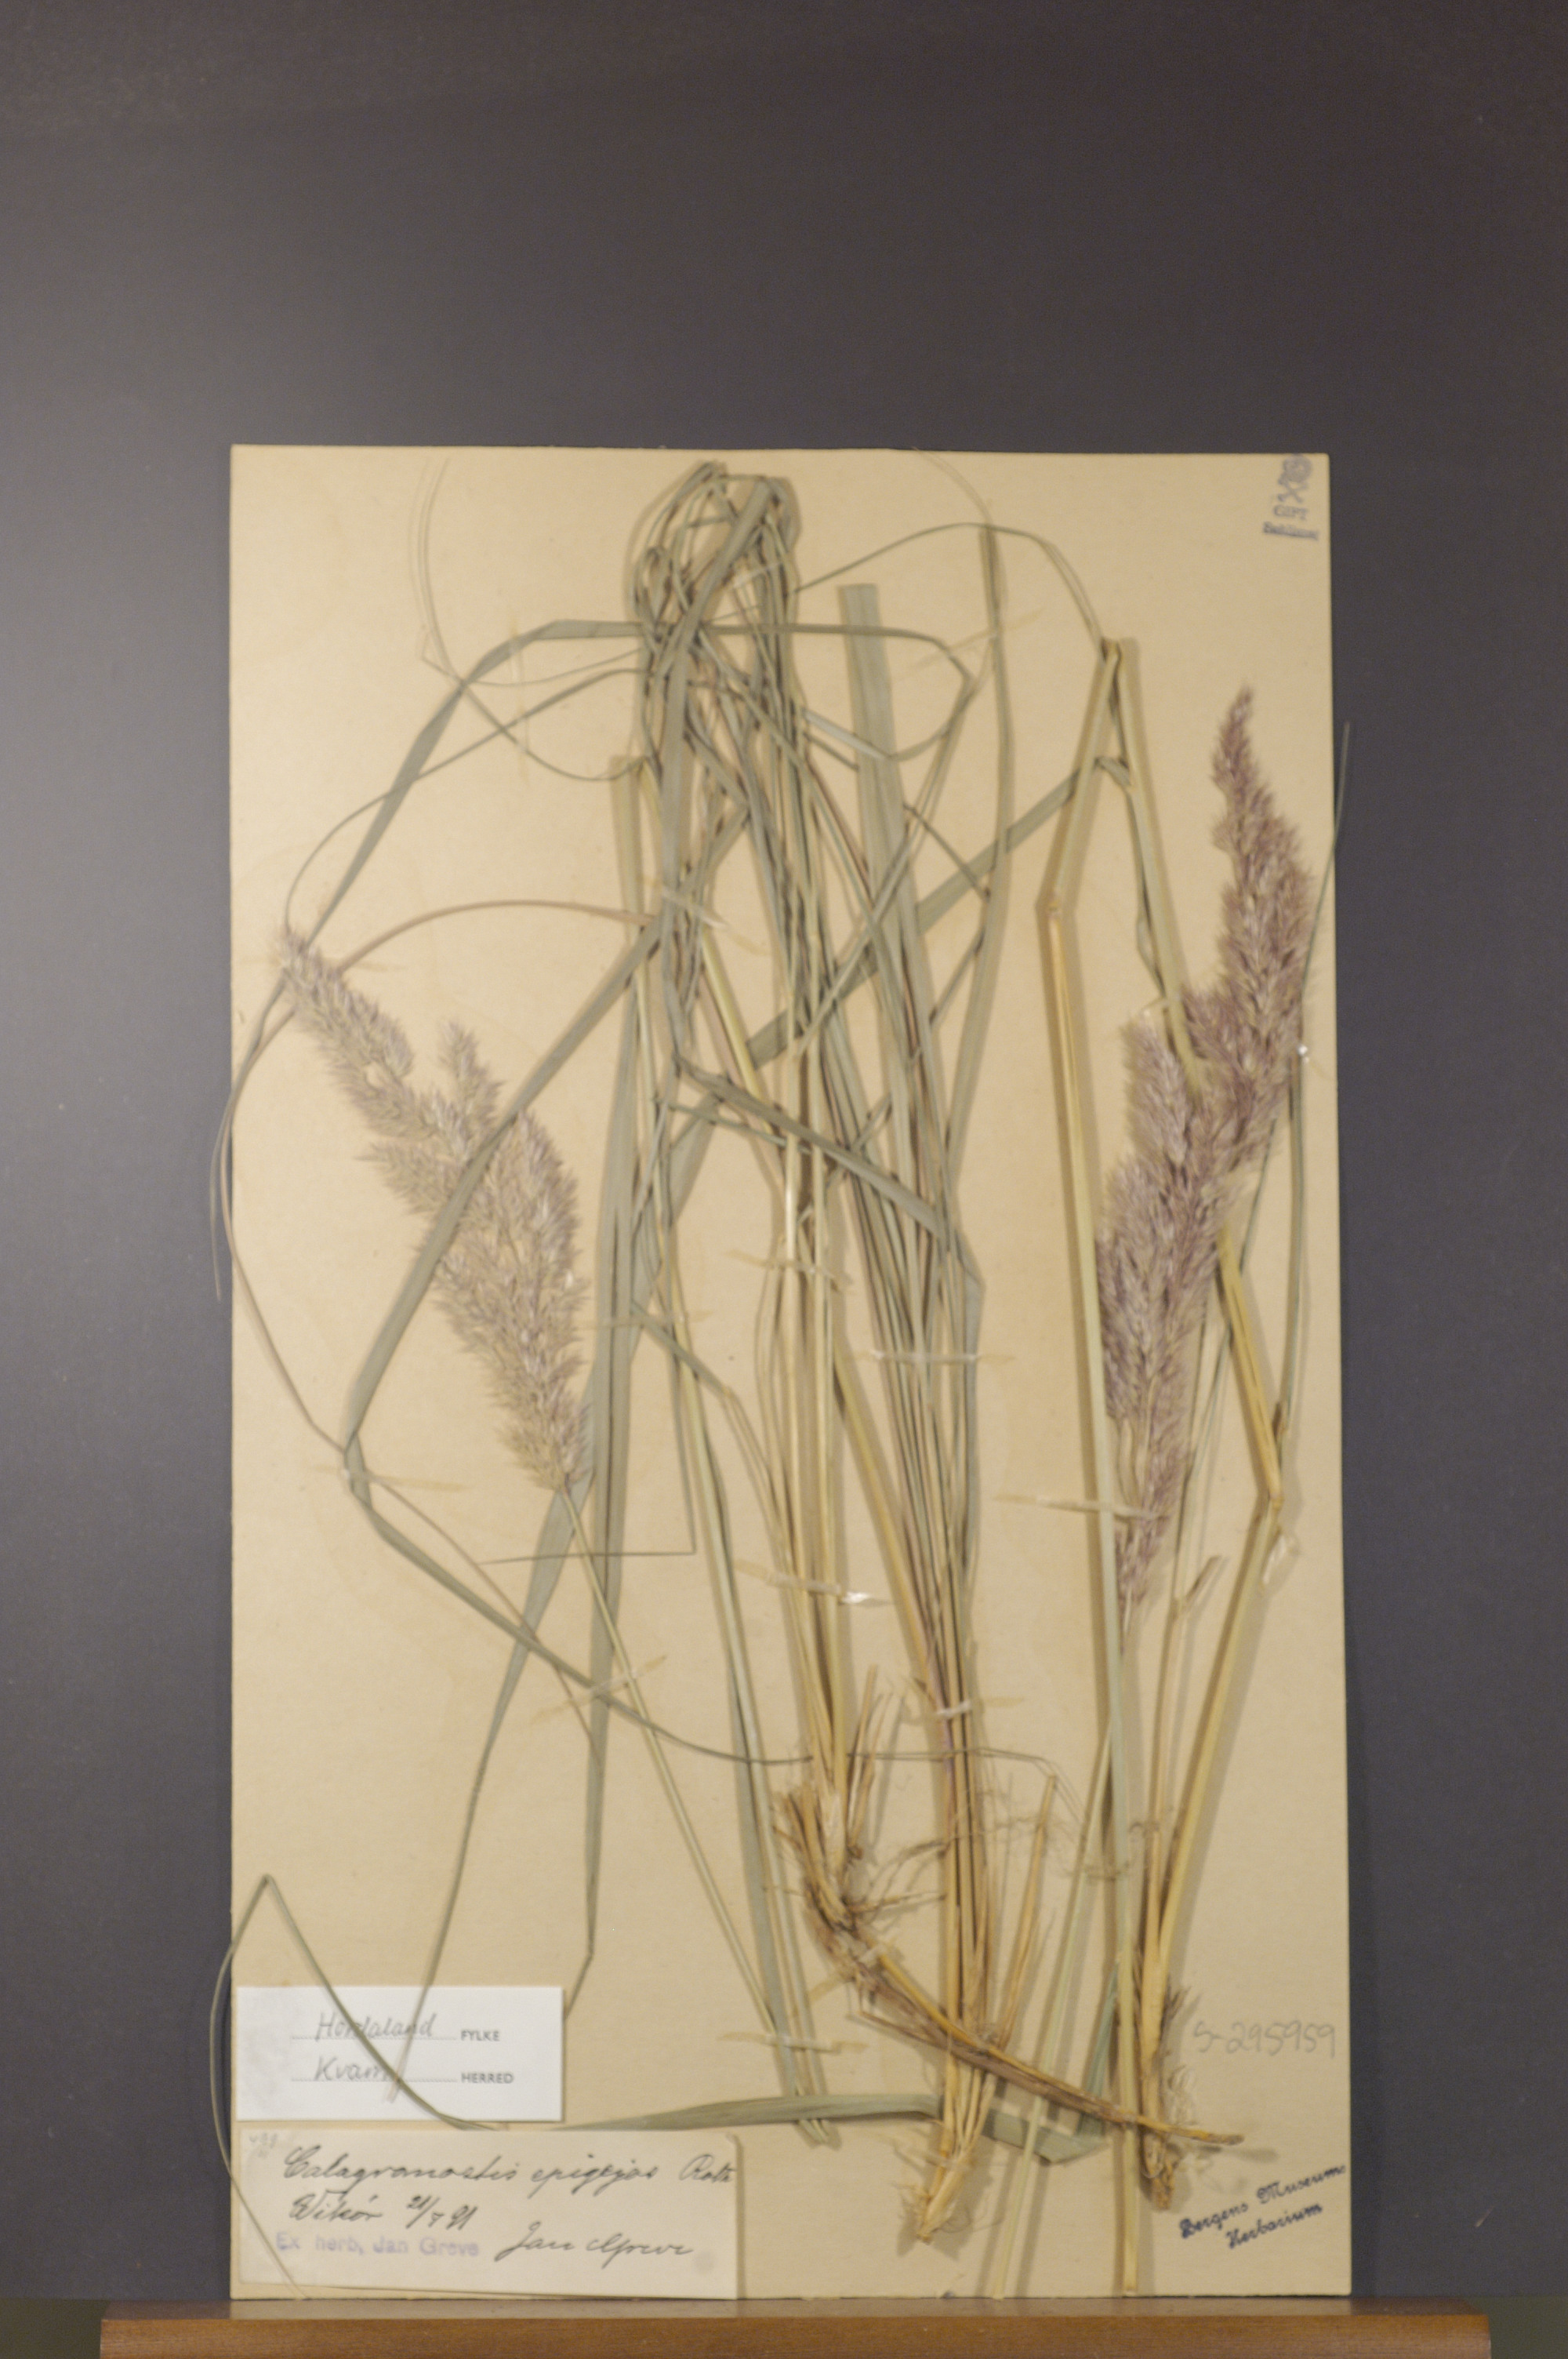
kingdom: Plantae
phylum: Tracheophyta
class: Liliopsida
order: Poales
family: Poaceae
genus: Calamagrostis
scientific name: Calamagrostis epigejos
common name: Wood small-reed
